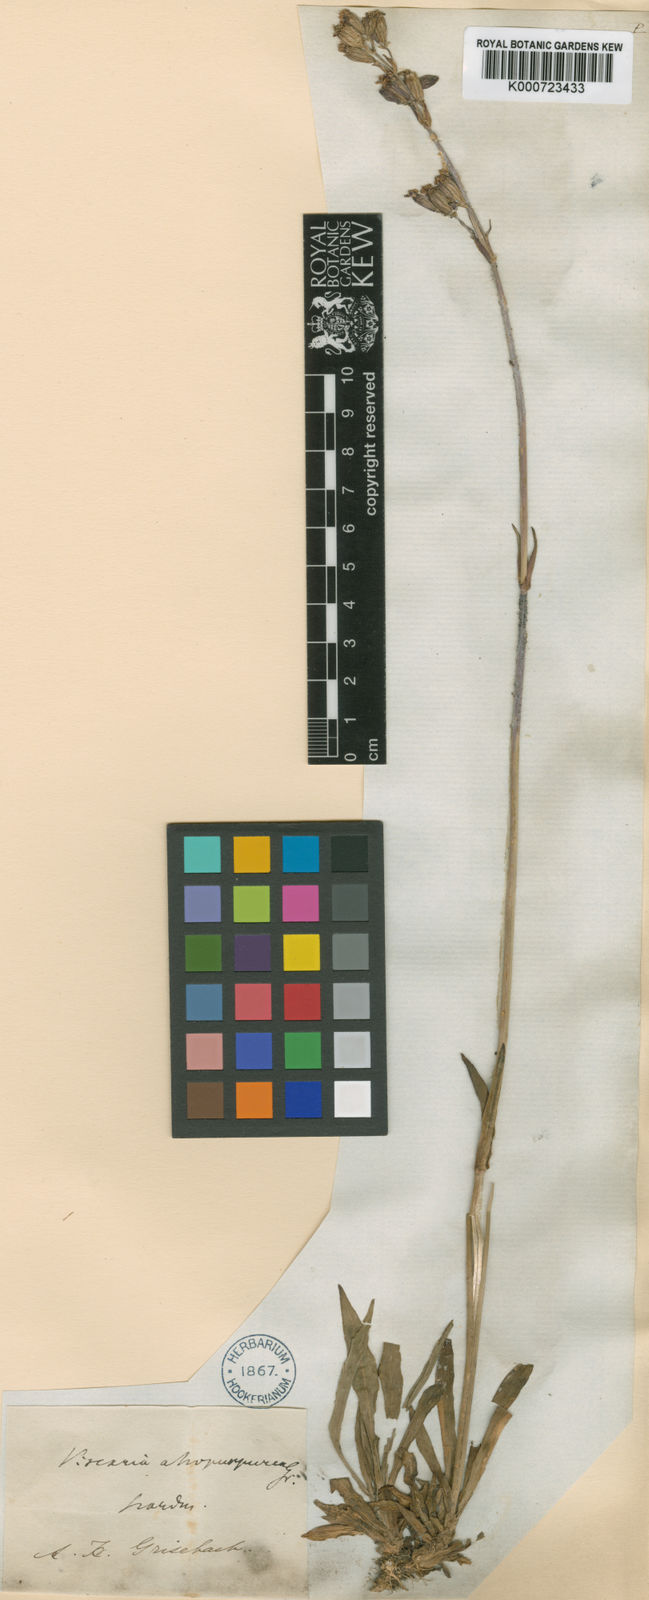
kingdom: Plantae
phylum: Tracheophyta
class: Magnoliopsida
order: Caryophyllales
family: Caryophyllaceae
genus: Viscaria
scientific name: Viscaria vulgaris
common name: Clammy campion
